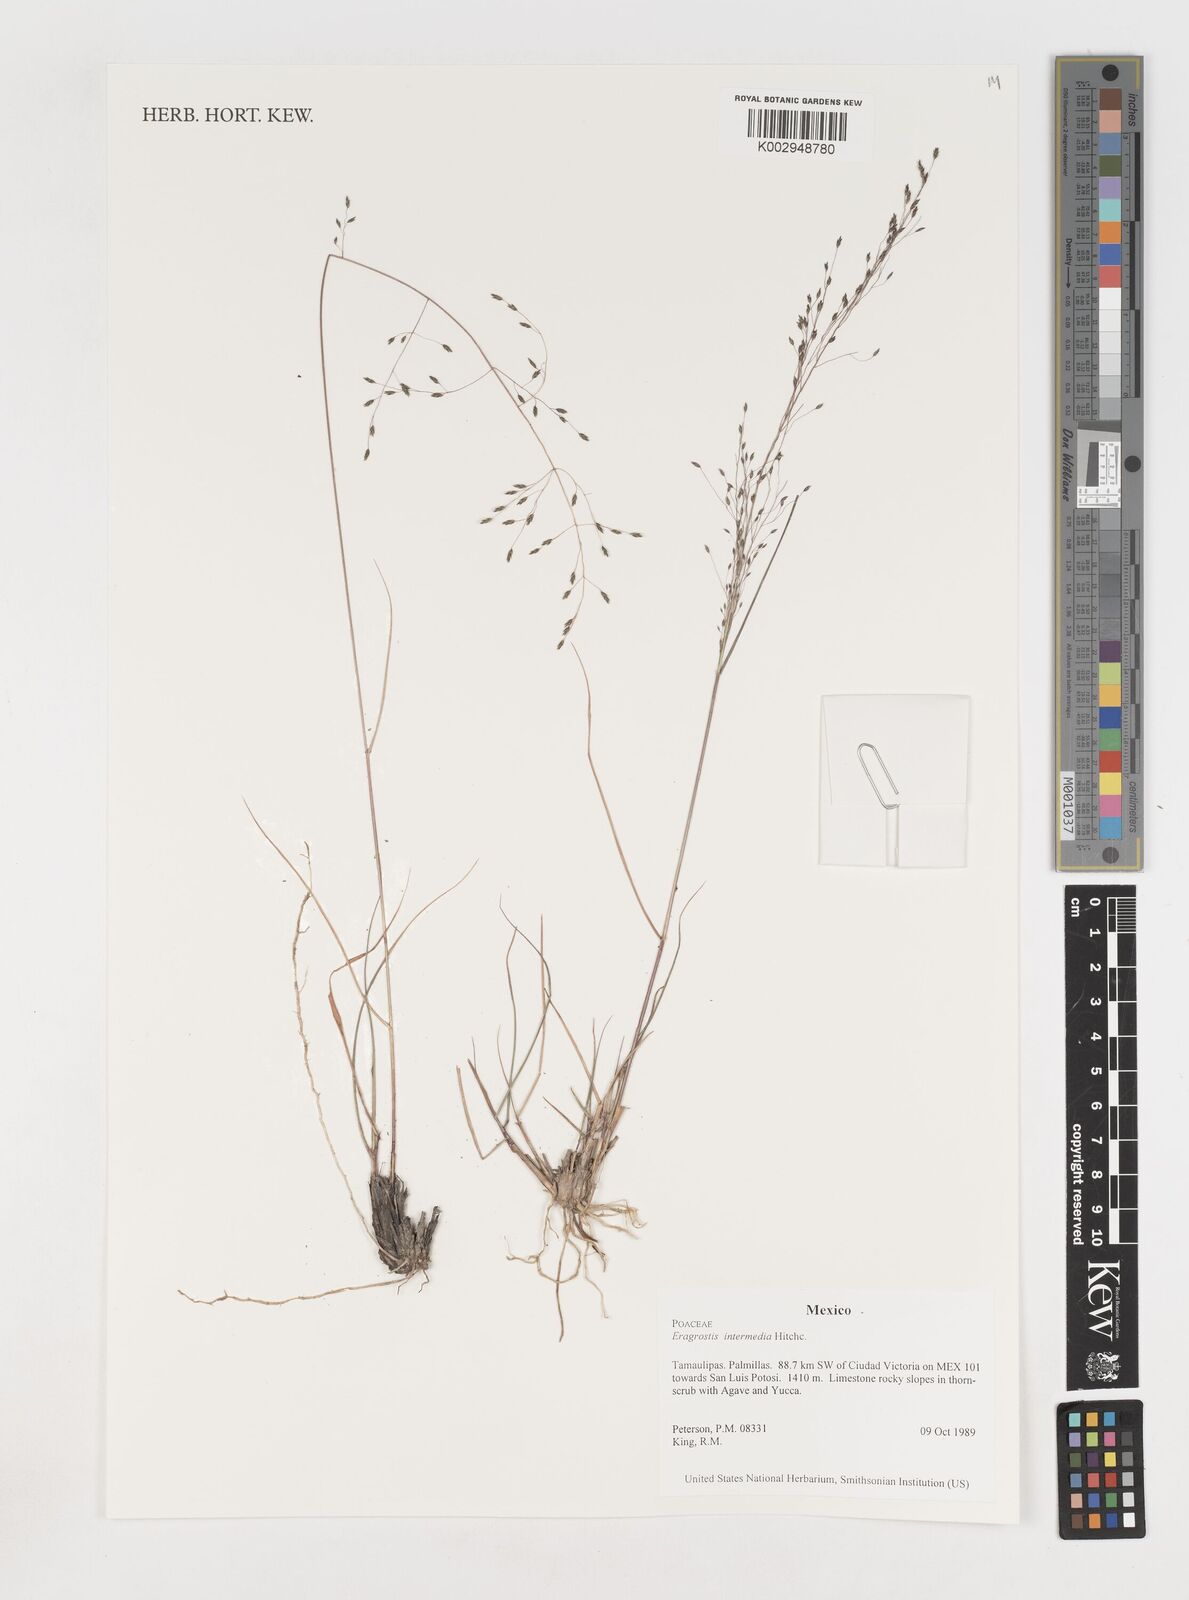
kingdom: Plantae
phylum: Tracheophyta
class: Liliopsida
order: Poales
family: Poaceae
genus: Eragrostis
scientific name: Eragrostis intermedia
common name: Plains love grass
